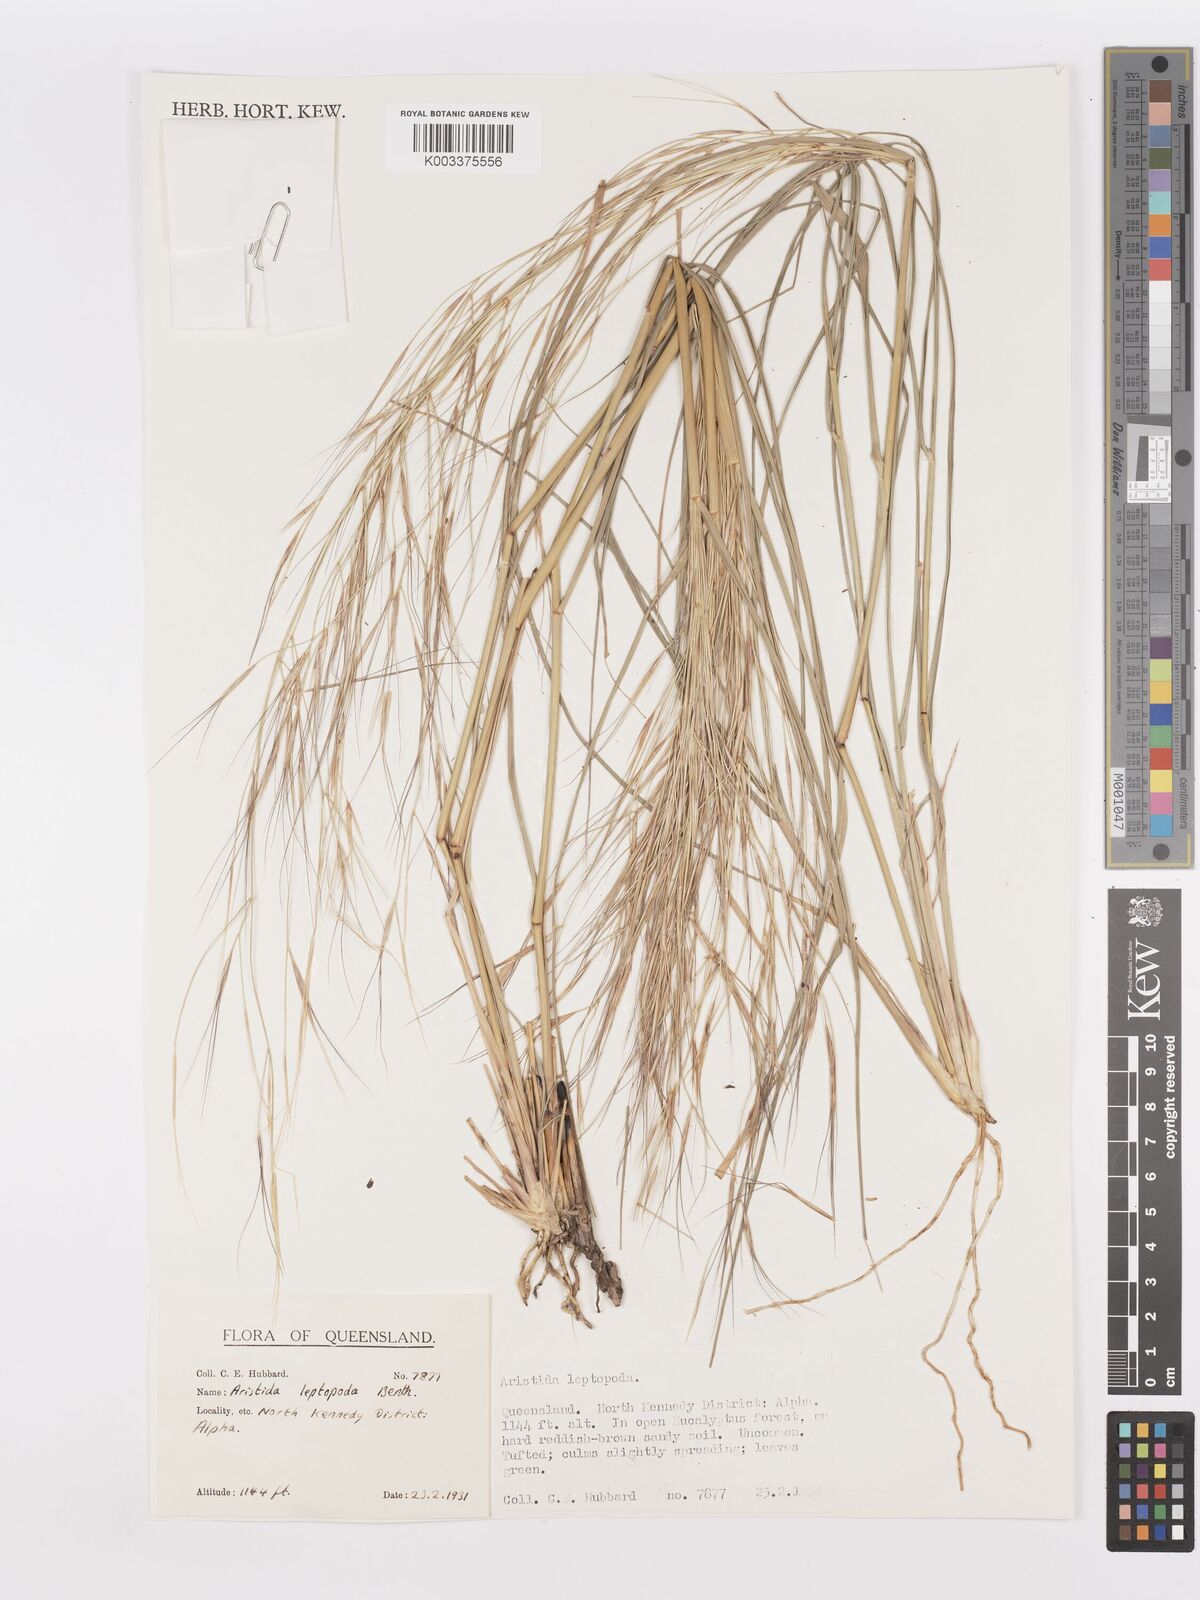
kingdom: Plantae
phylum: Tracheophyta
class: Liliopsida
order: Poales
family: Poaceae
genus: Aristida
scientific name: Aristida leptopoda
